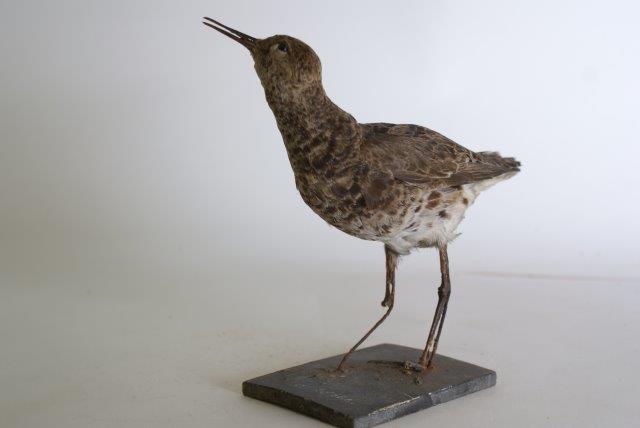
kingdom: Animalia
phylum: Chordata
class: Aves
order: Charadriiformes
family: Scolopacidae
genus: Calidris
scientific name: Calidris pugnax
